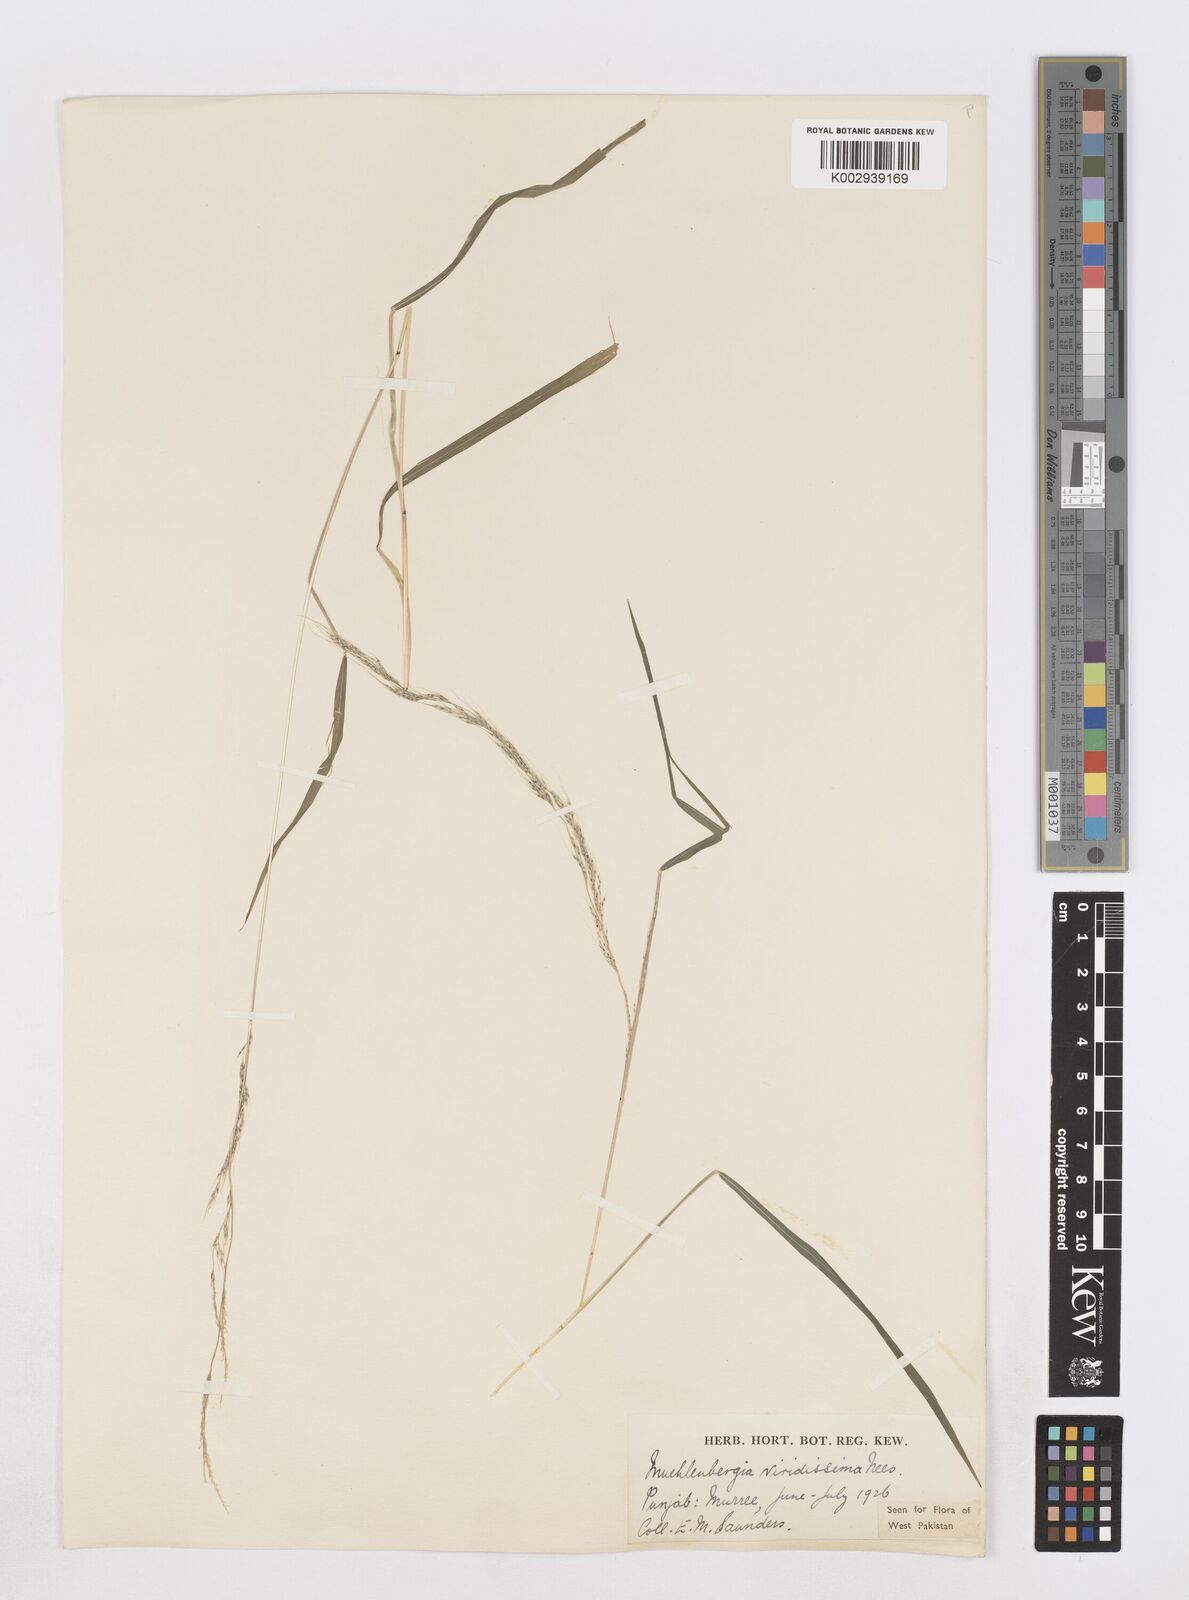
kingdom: Plantae
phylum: Tracheophyta
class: Liliopsida
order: Poales
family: Poaceae
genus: Muhlenbergia
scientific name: Muhlenbergia huegelii
